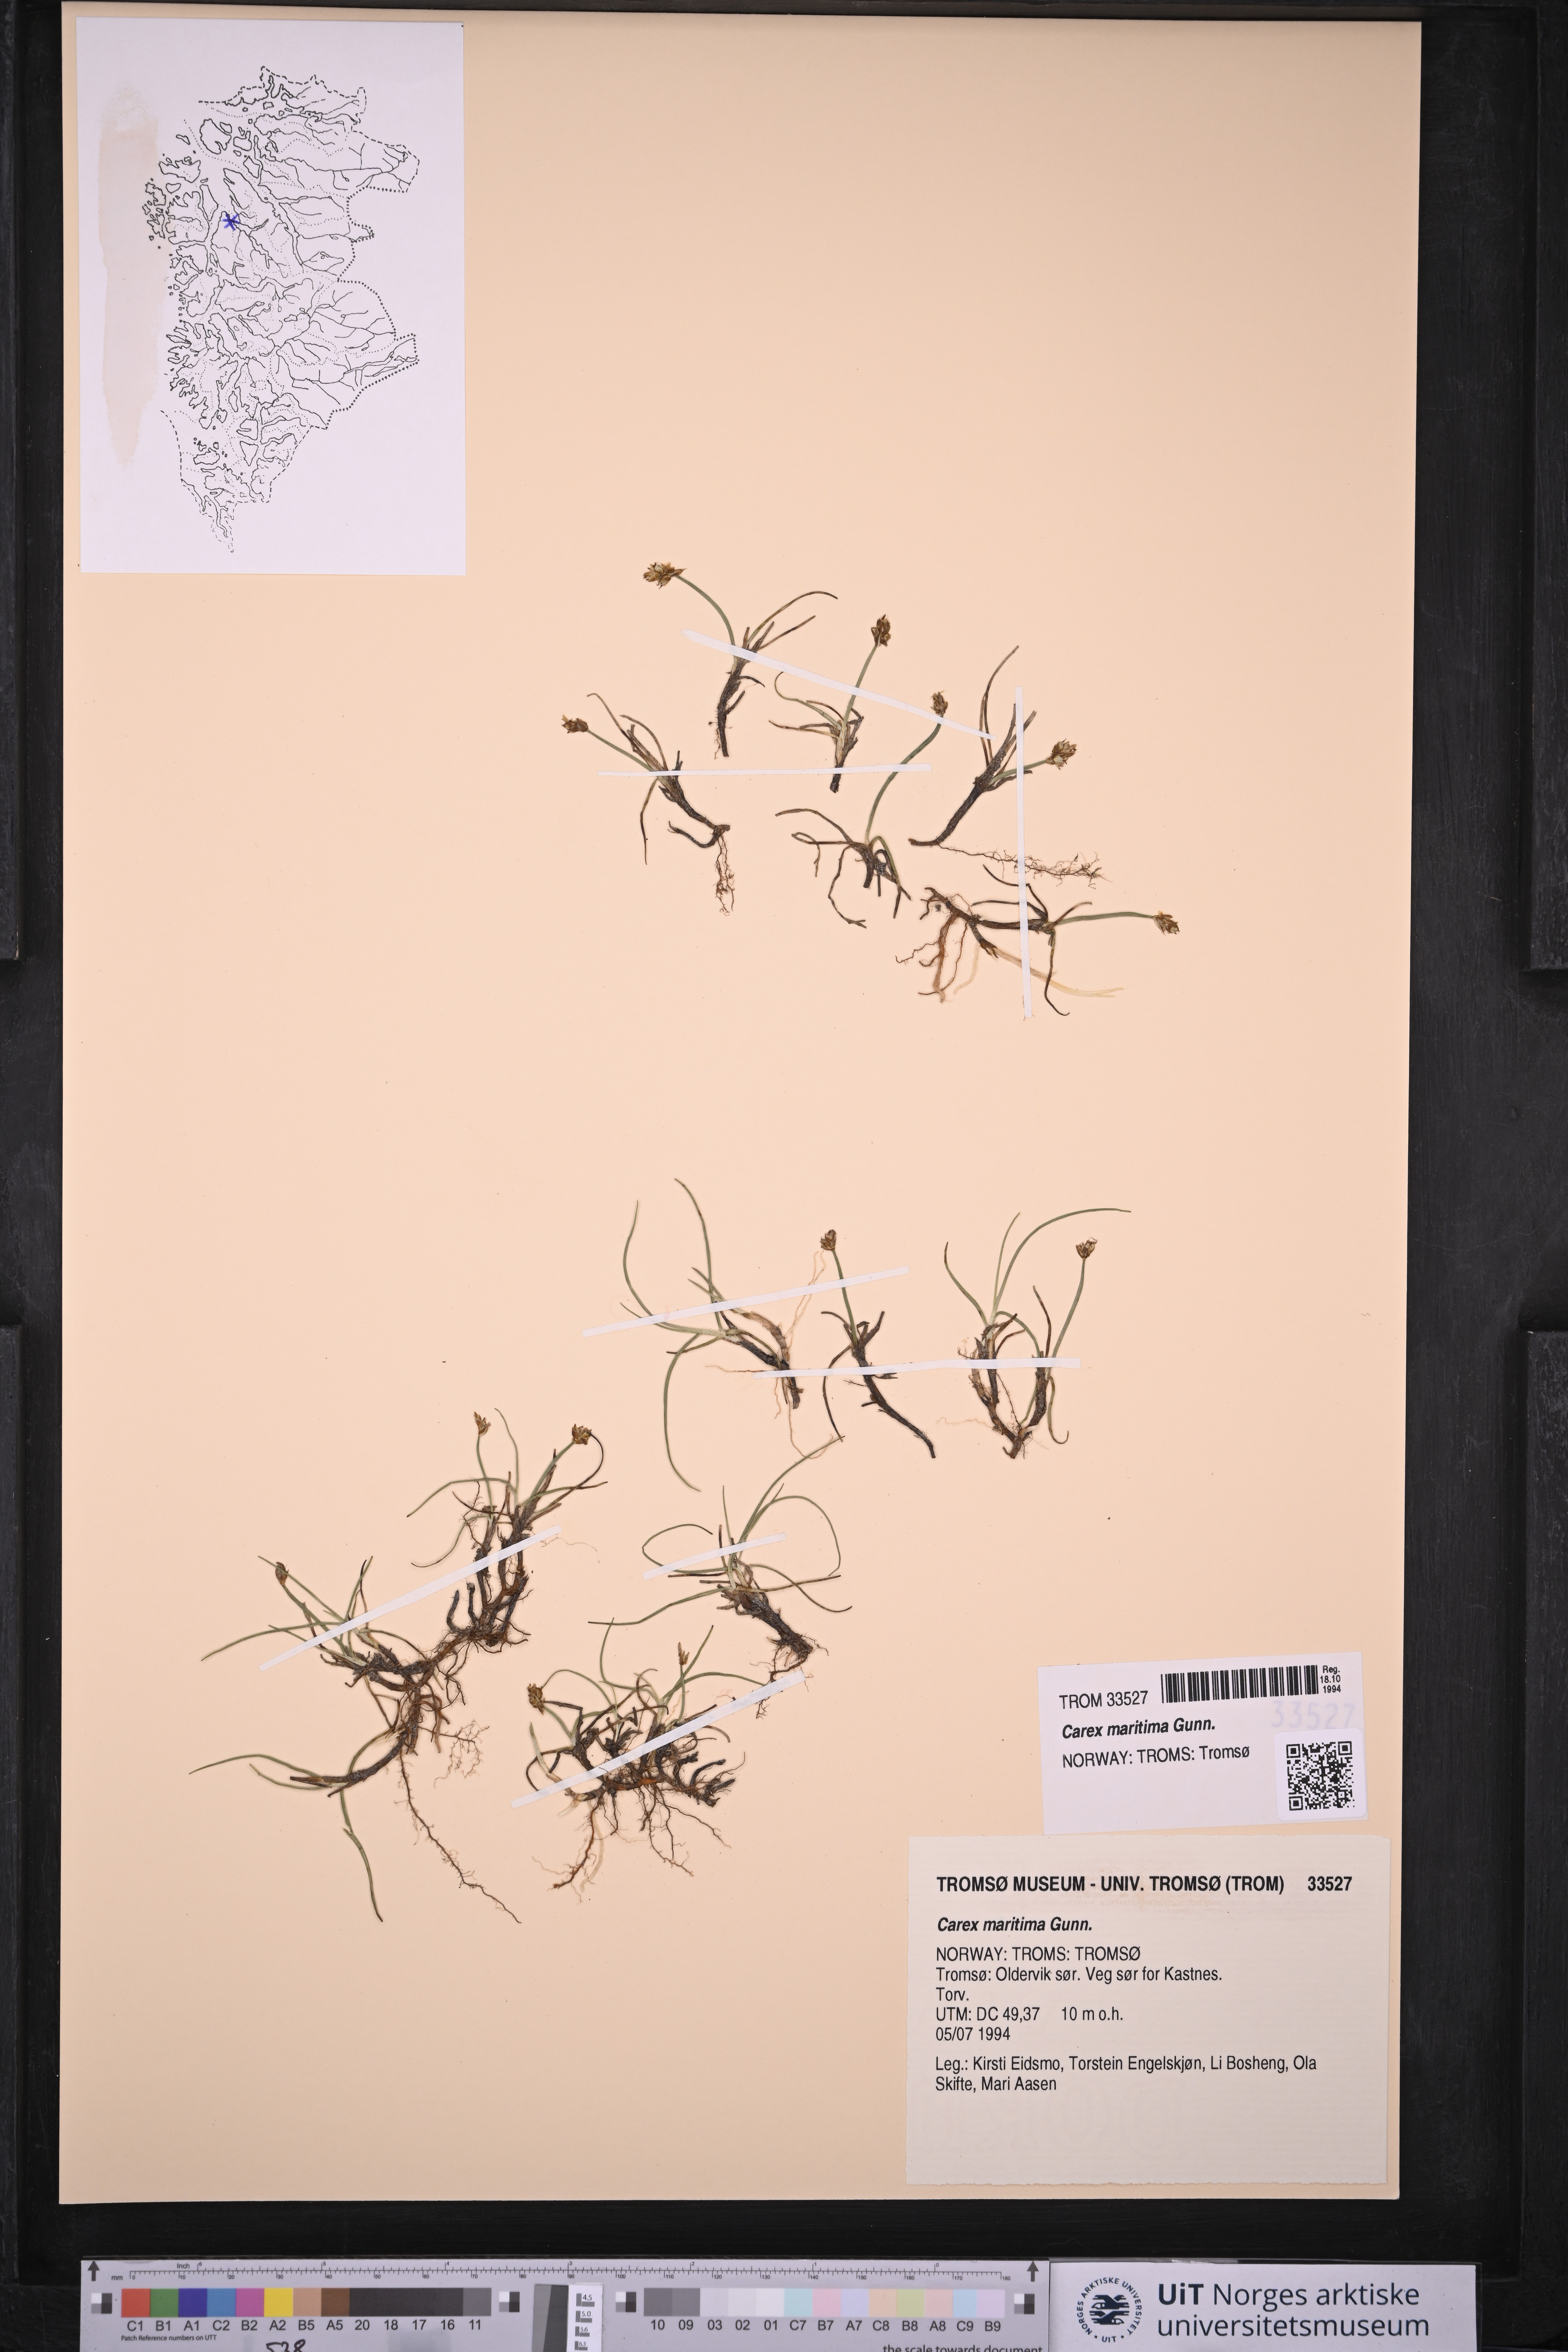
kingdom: Plantae
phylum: Tracheophyta
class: Liliopsida
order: Poales
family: Cyperaceae
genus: Carex
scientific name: Carex maritima
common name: Curved sedge
